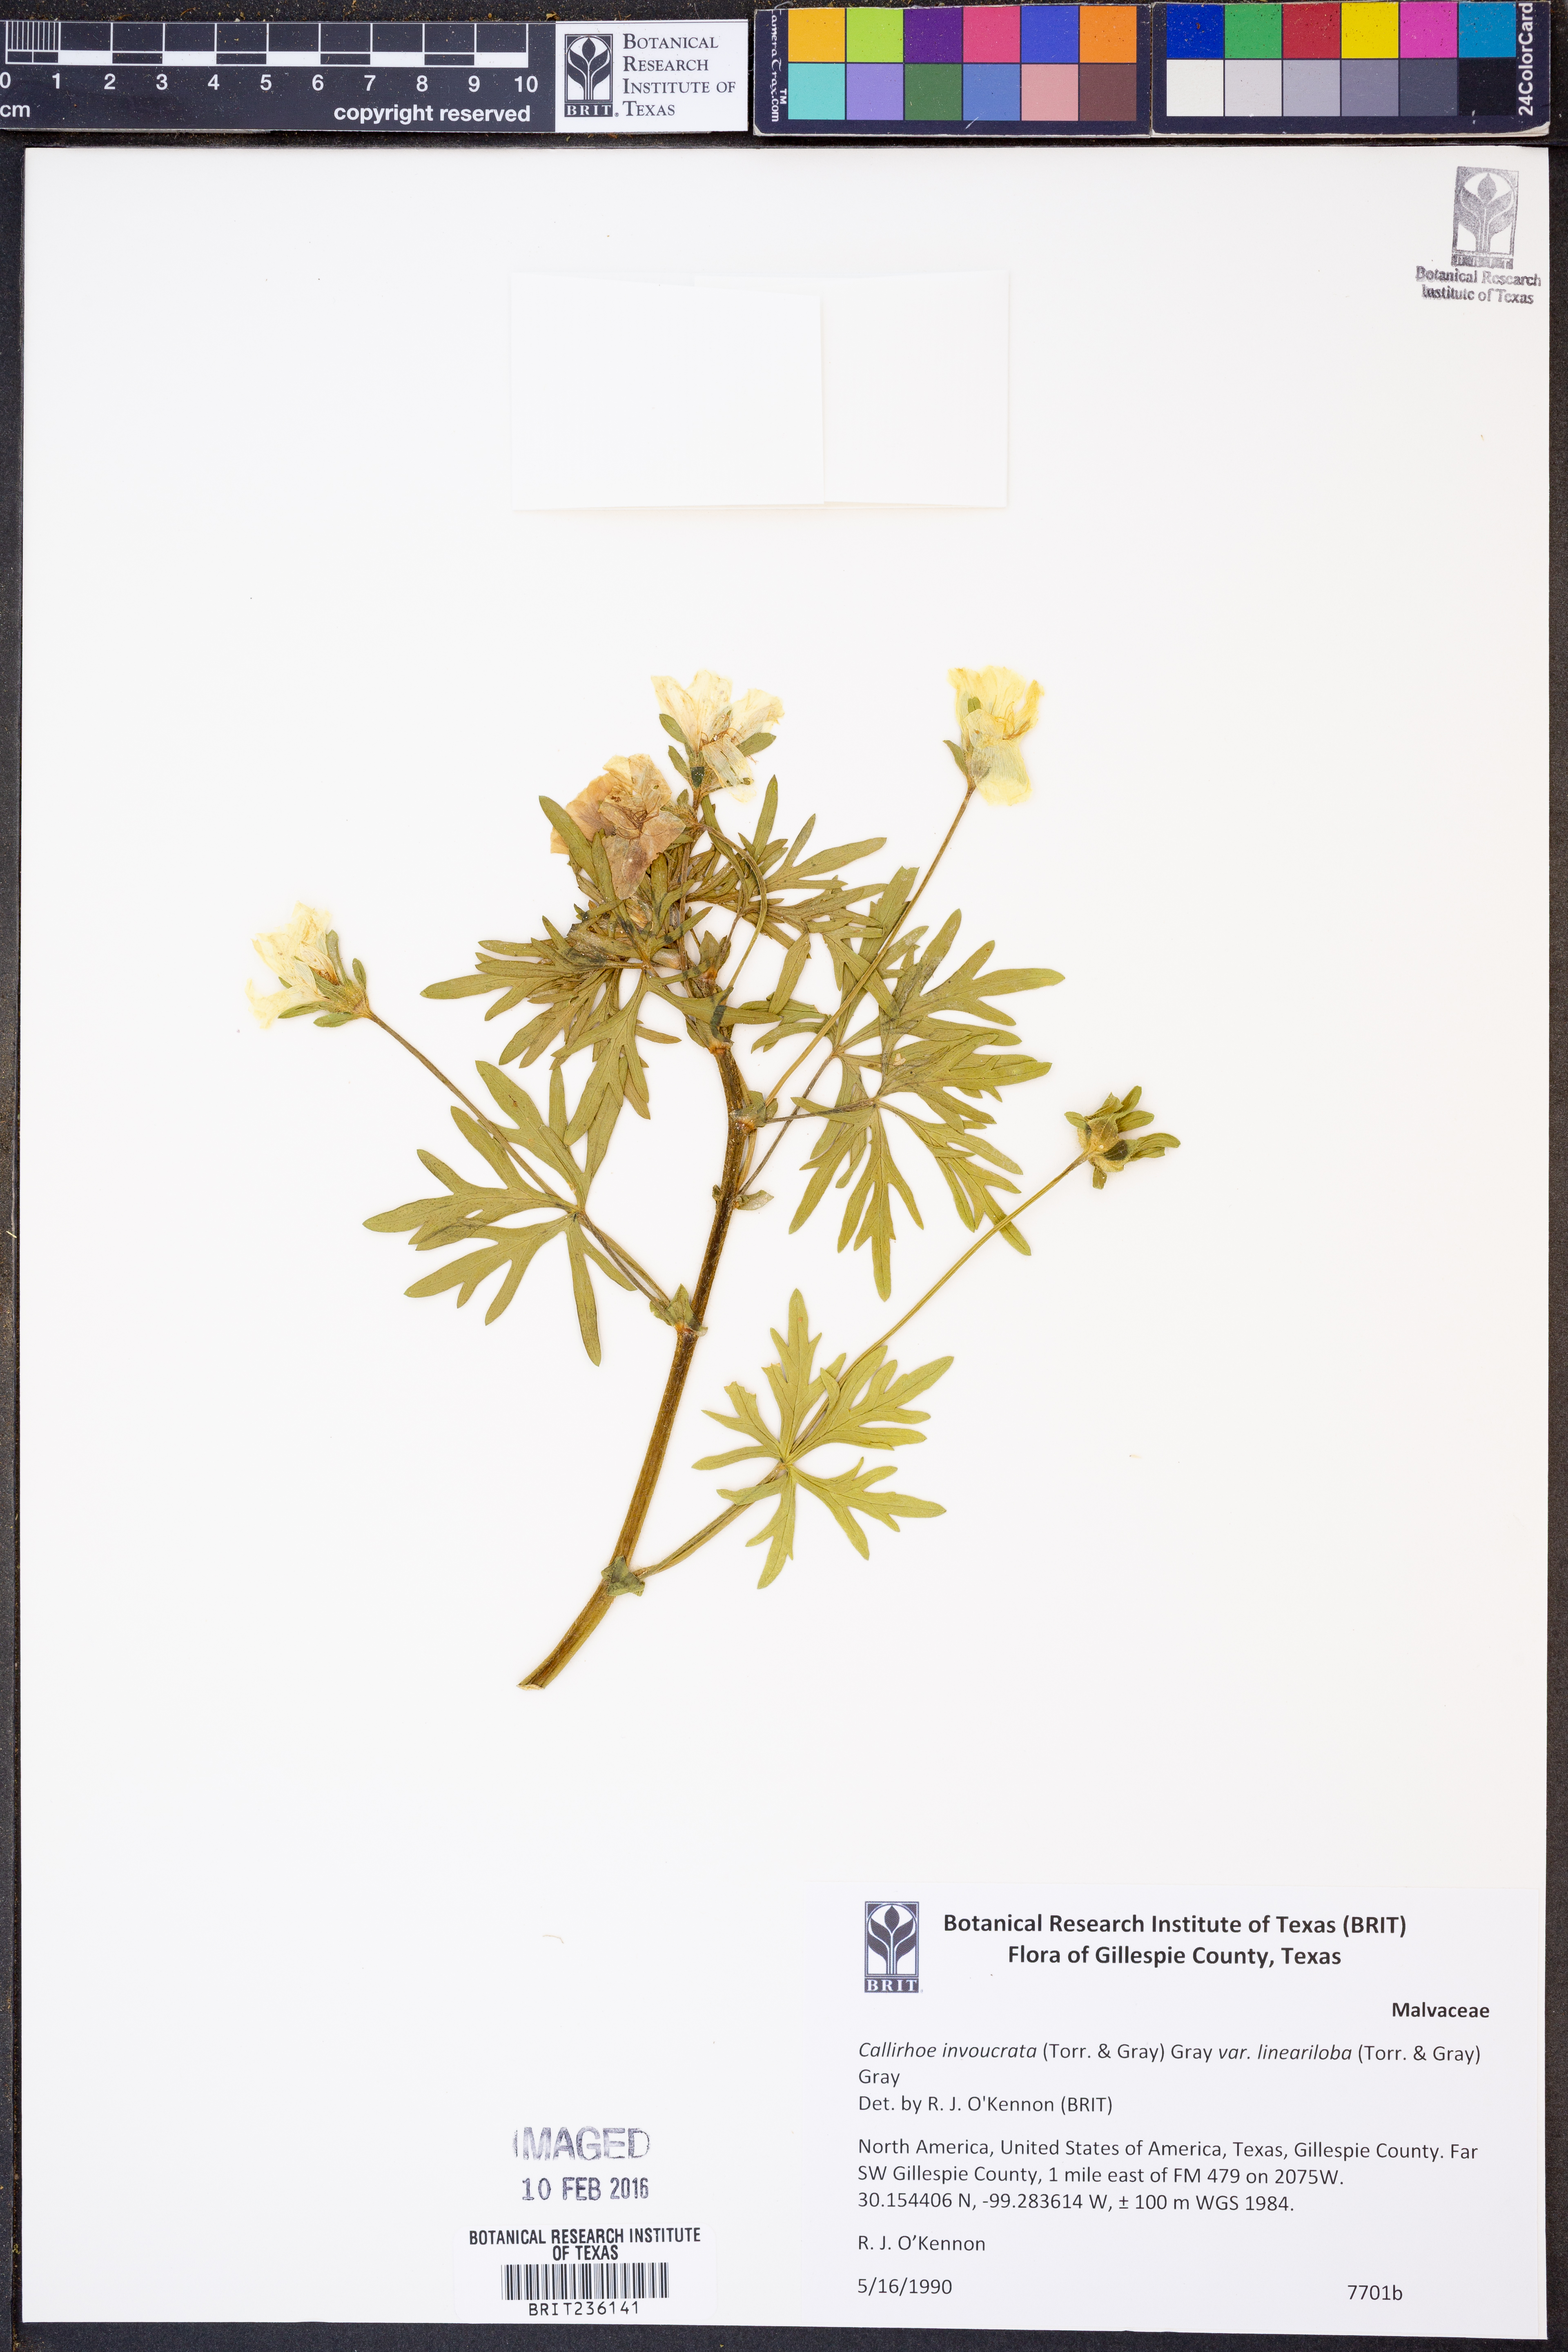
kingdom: Plantae
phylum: Tracheophyta
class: Magnoliopsida
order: Malvales
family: Malvaceae
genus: Callirhoe
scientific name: Callirhoe involucrata
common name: Purple poppy-mallow
